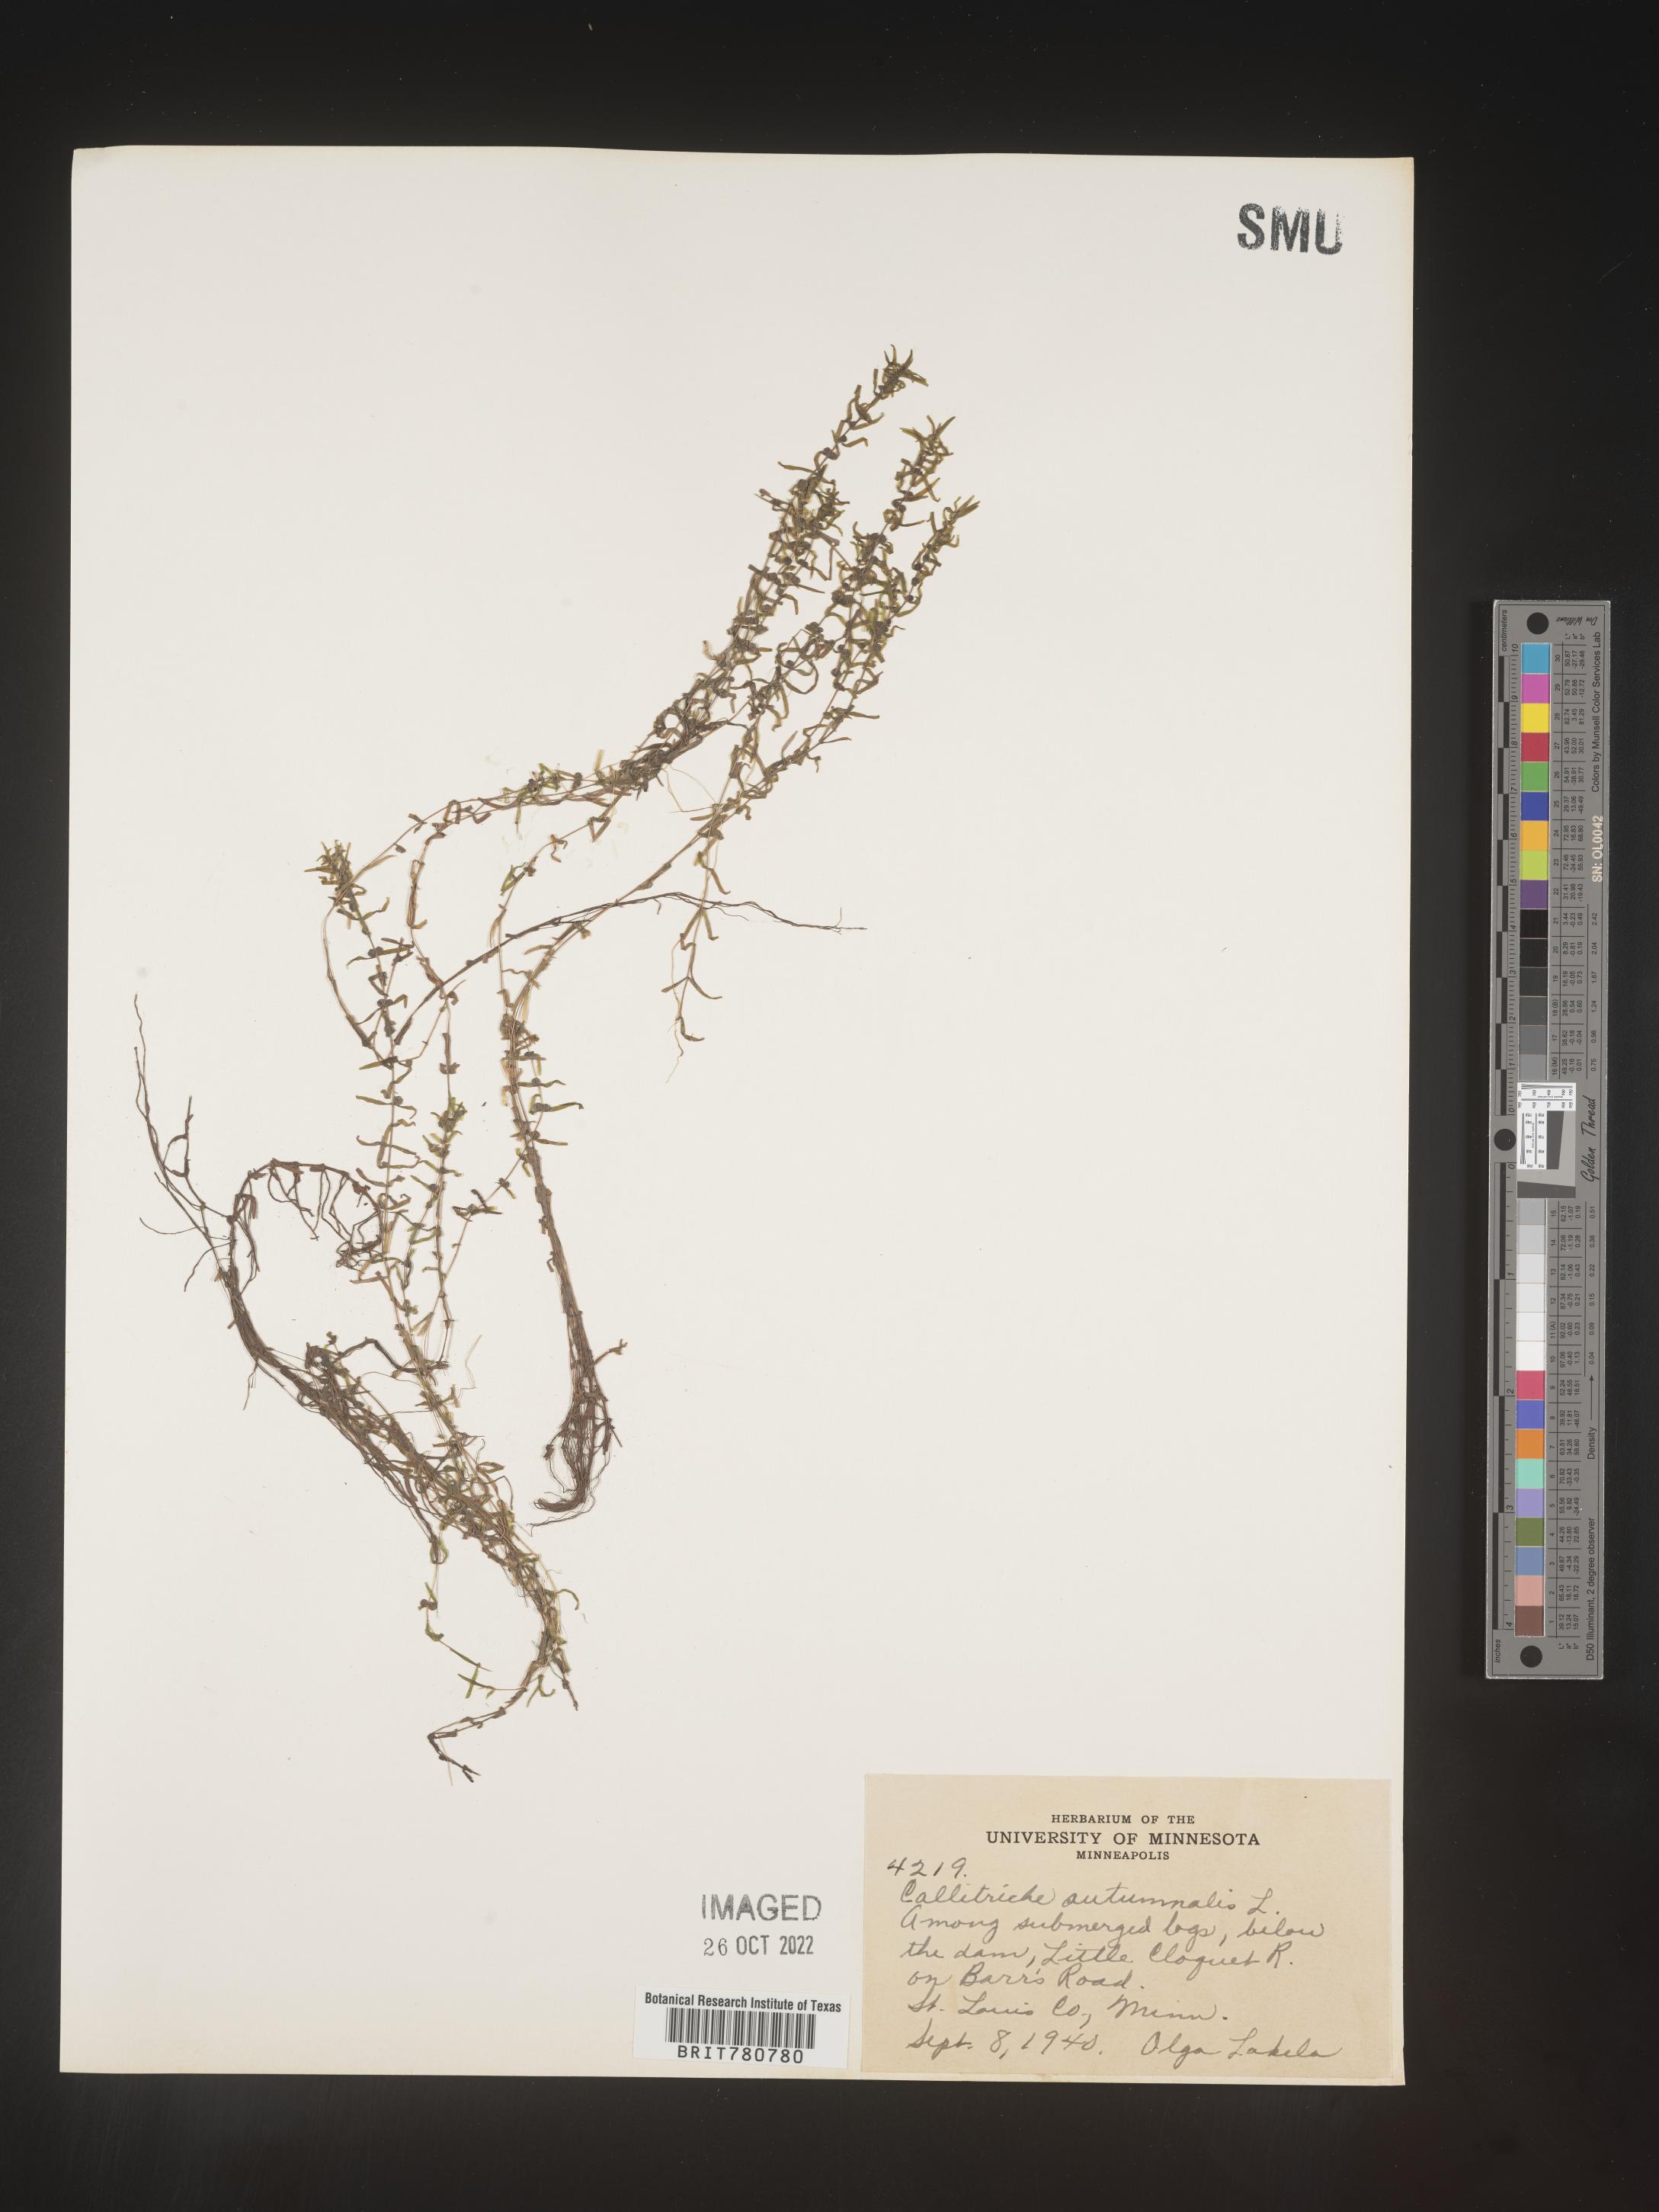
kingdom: Plantae
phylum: Tracheophyta
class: Magnoliopsida
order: Lamiales
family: Plantaginaceae
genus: Callitriche
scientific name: Callitriche
